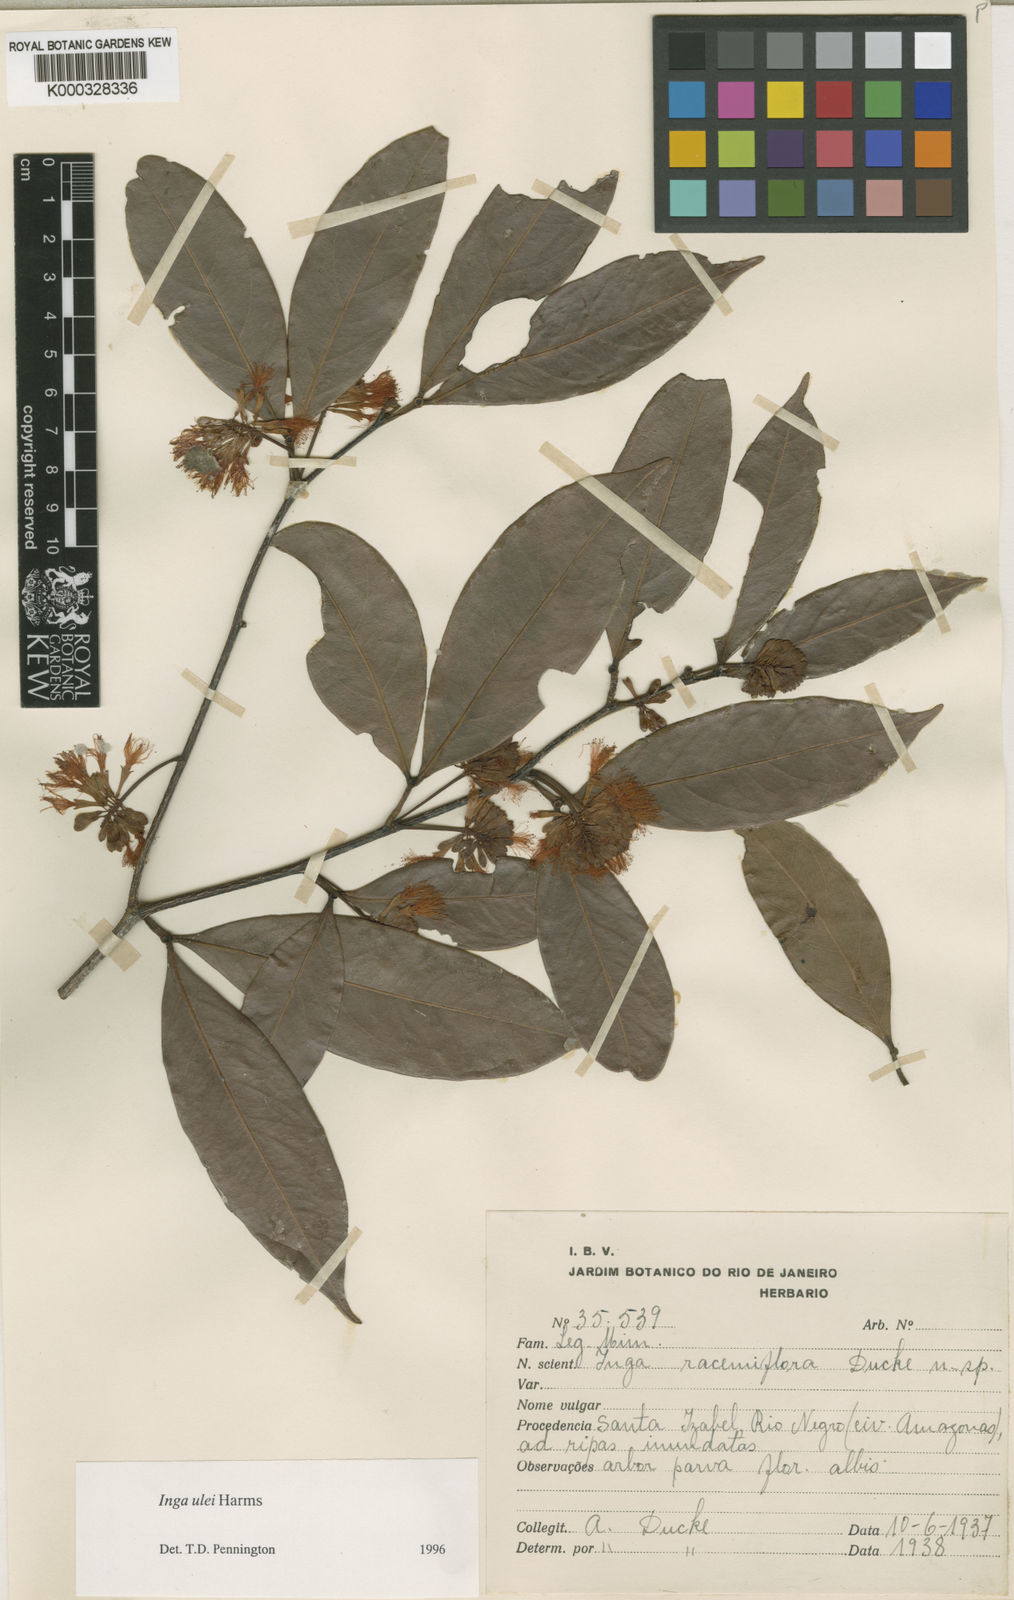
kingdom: Plantae
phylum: Tracheophyta
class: Magnoliopsida
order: Fabales
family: Fabaceae
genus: Inga
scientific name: Inga ulei
